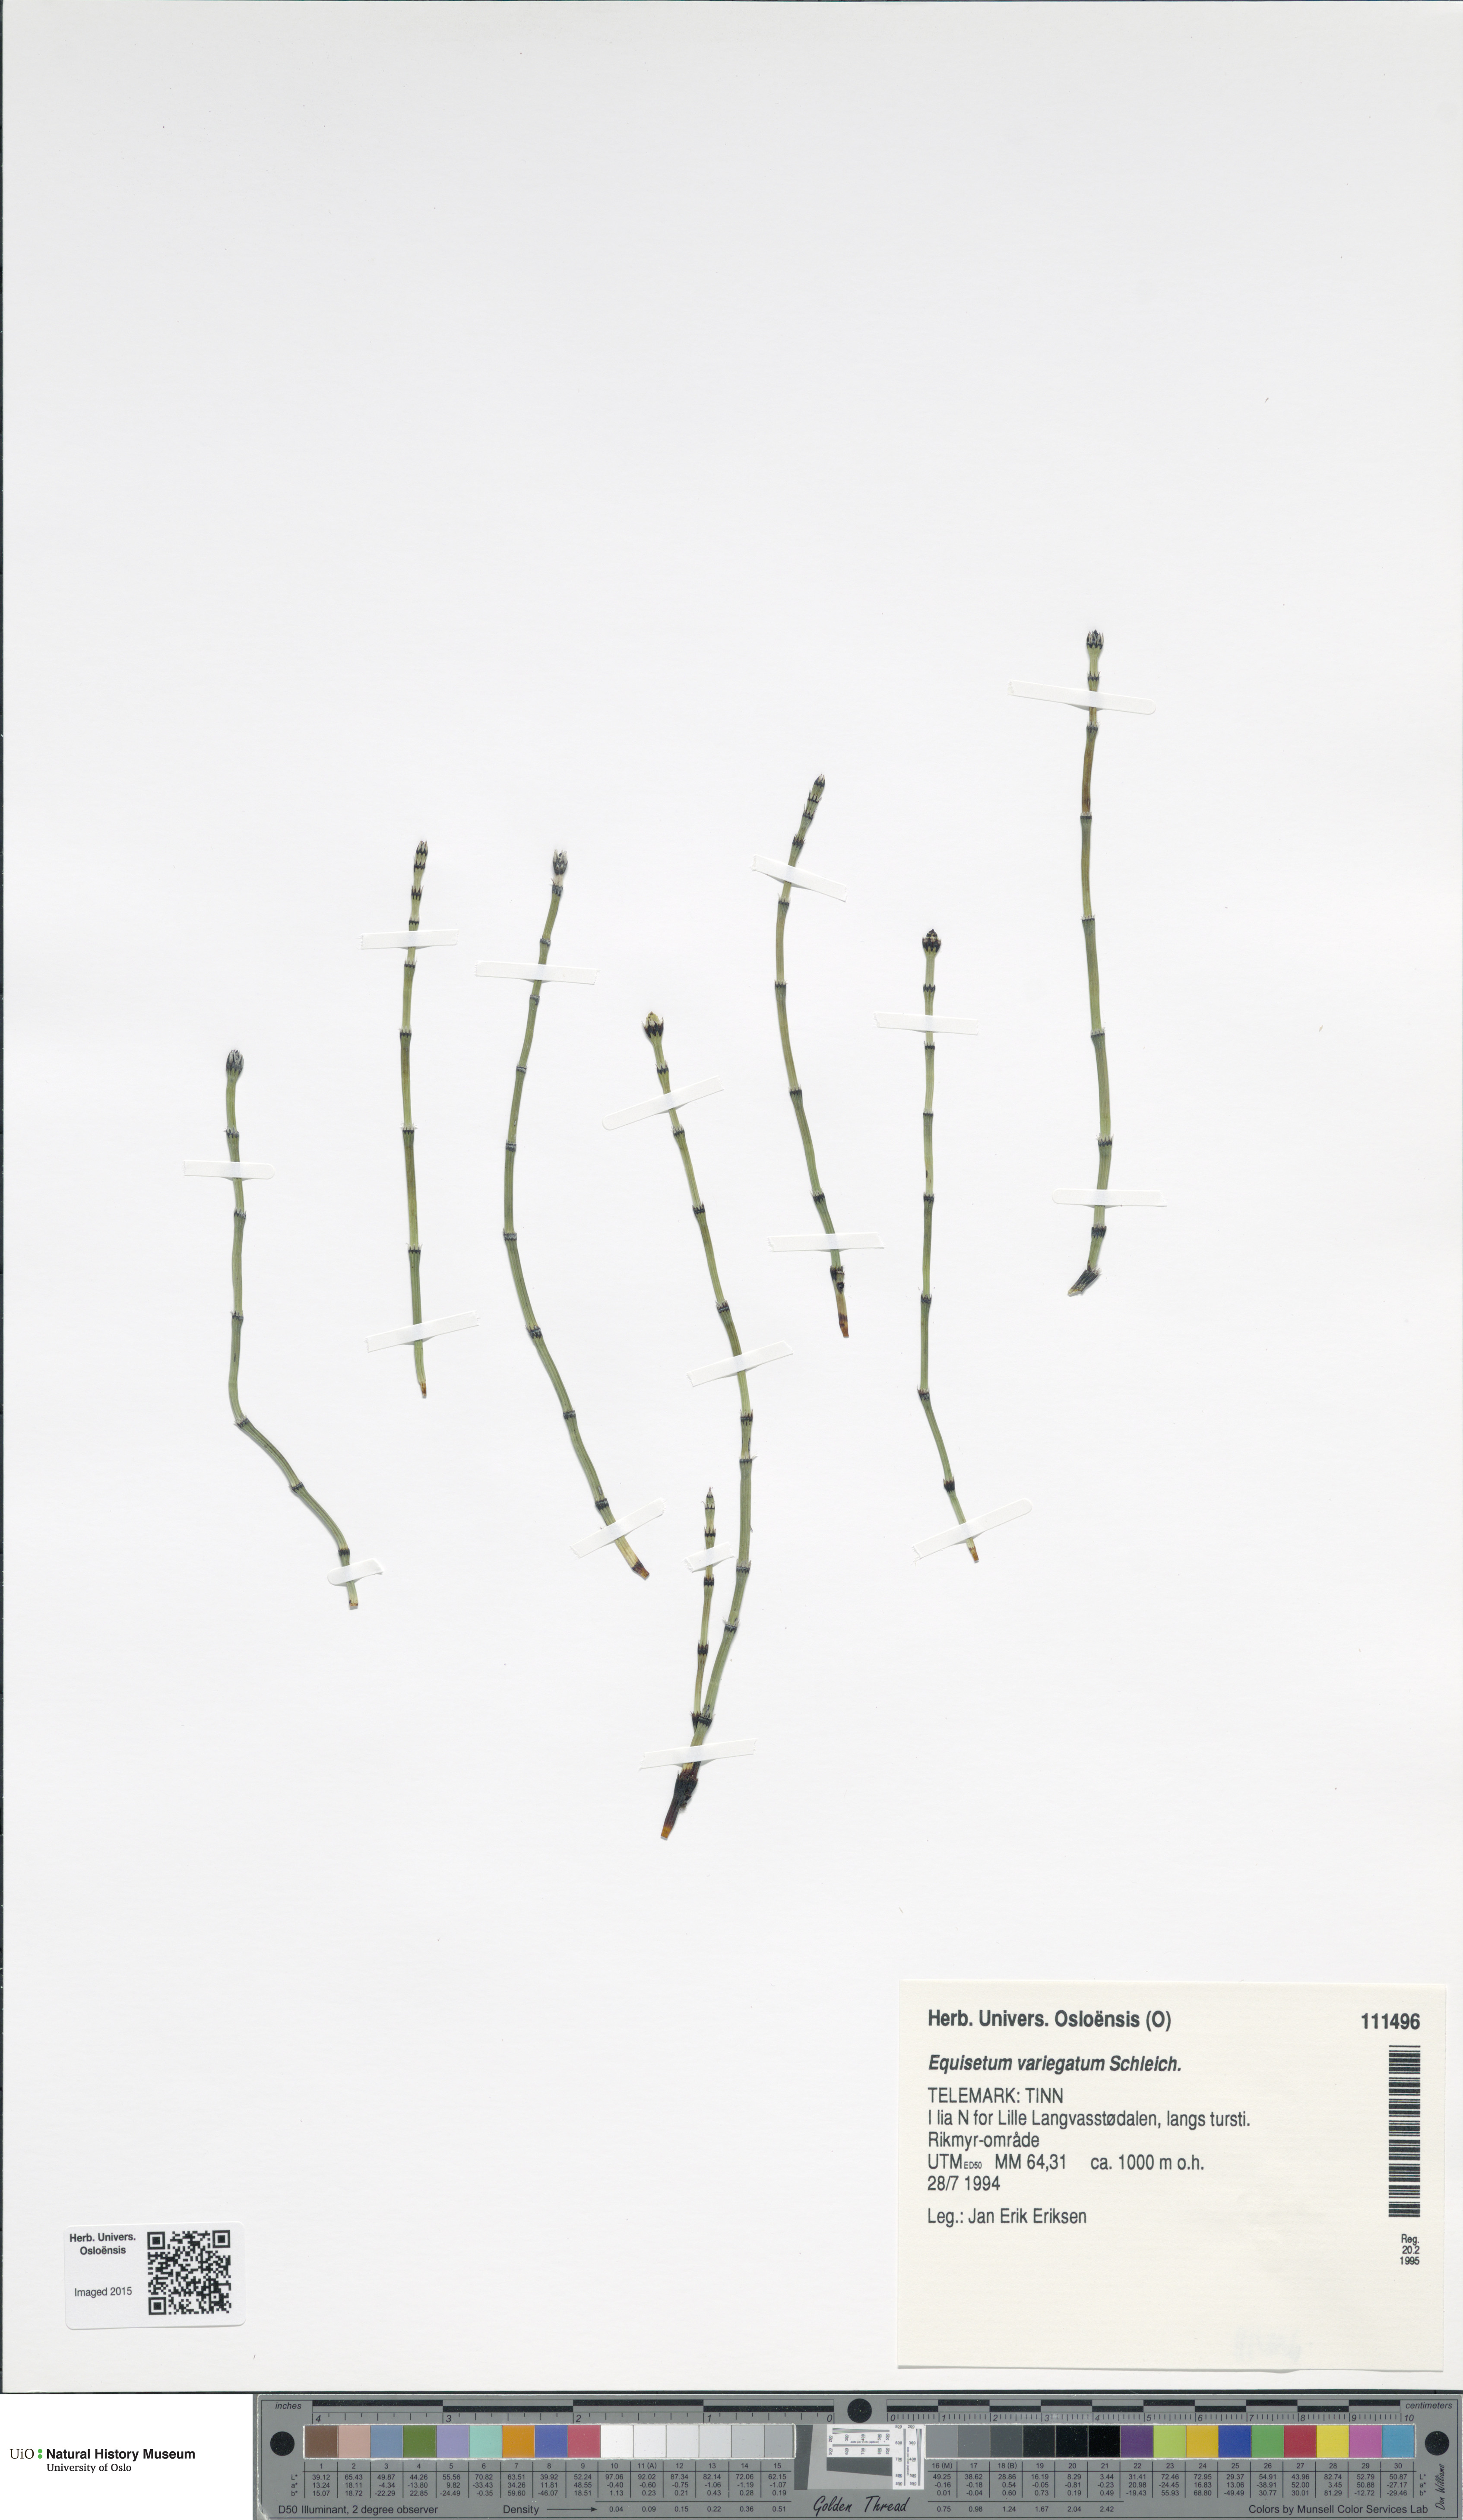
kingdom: Plantae
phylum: Tracheophyta
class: Polypodiopsida
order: Equisetales
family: Equisetaceae
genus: Equisetum
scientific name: Equisetum variegatum
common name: Variegated horsetail
